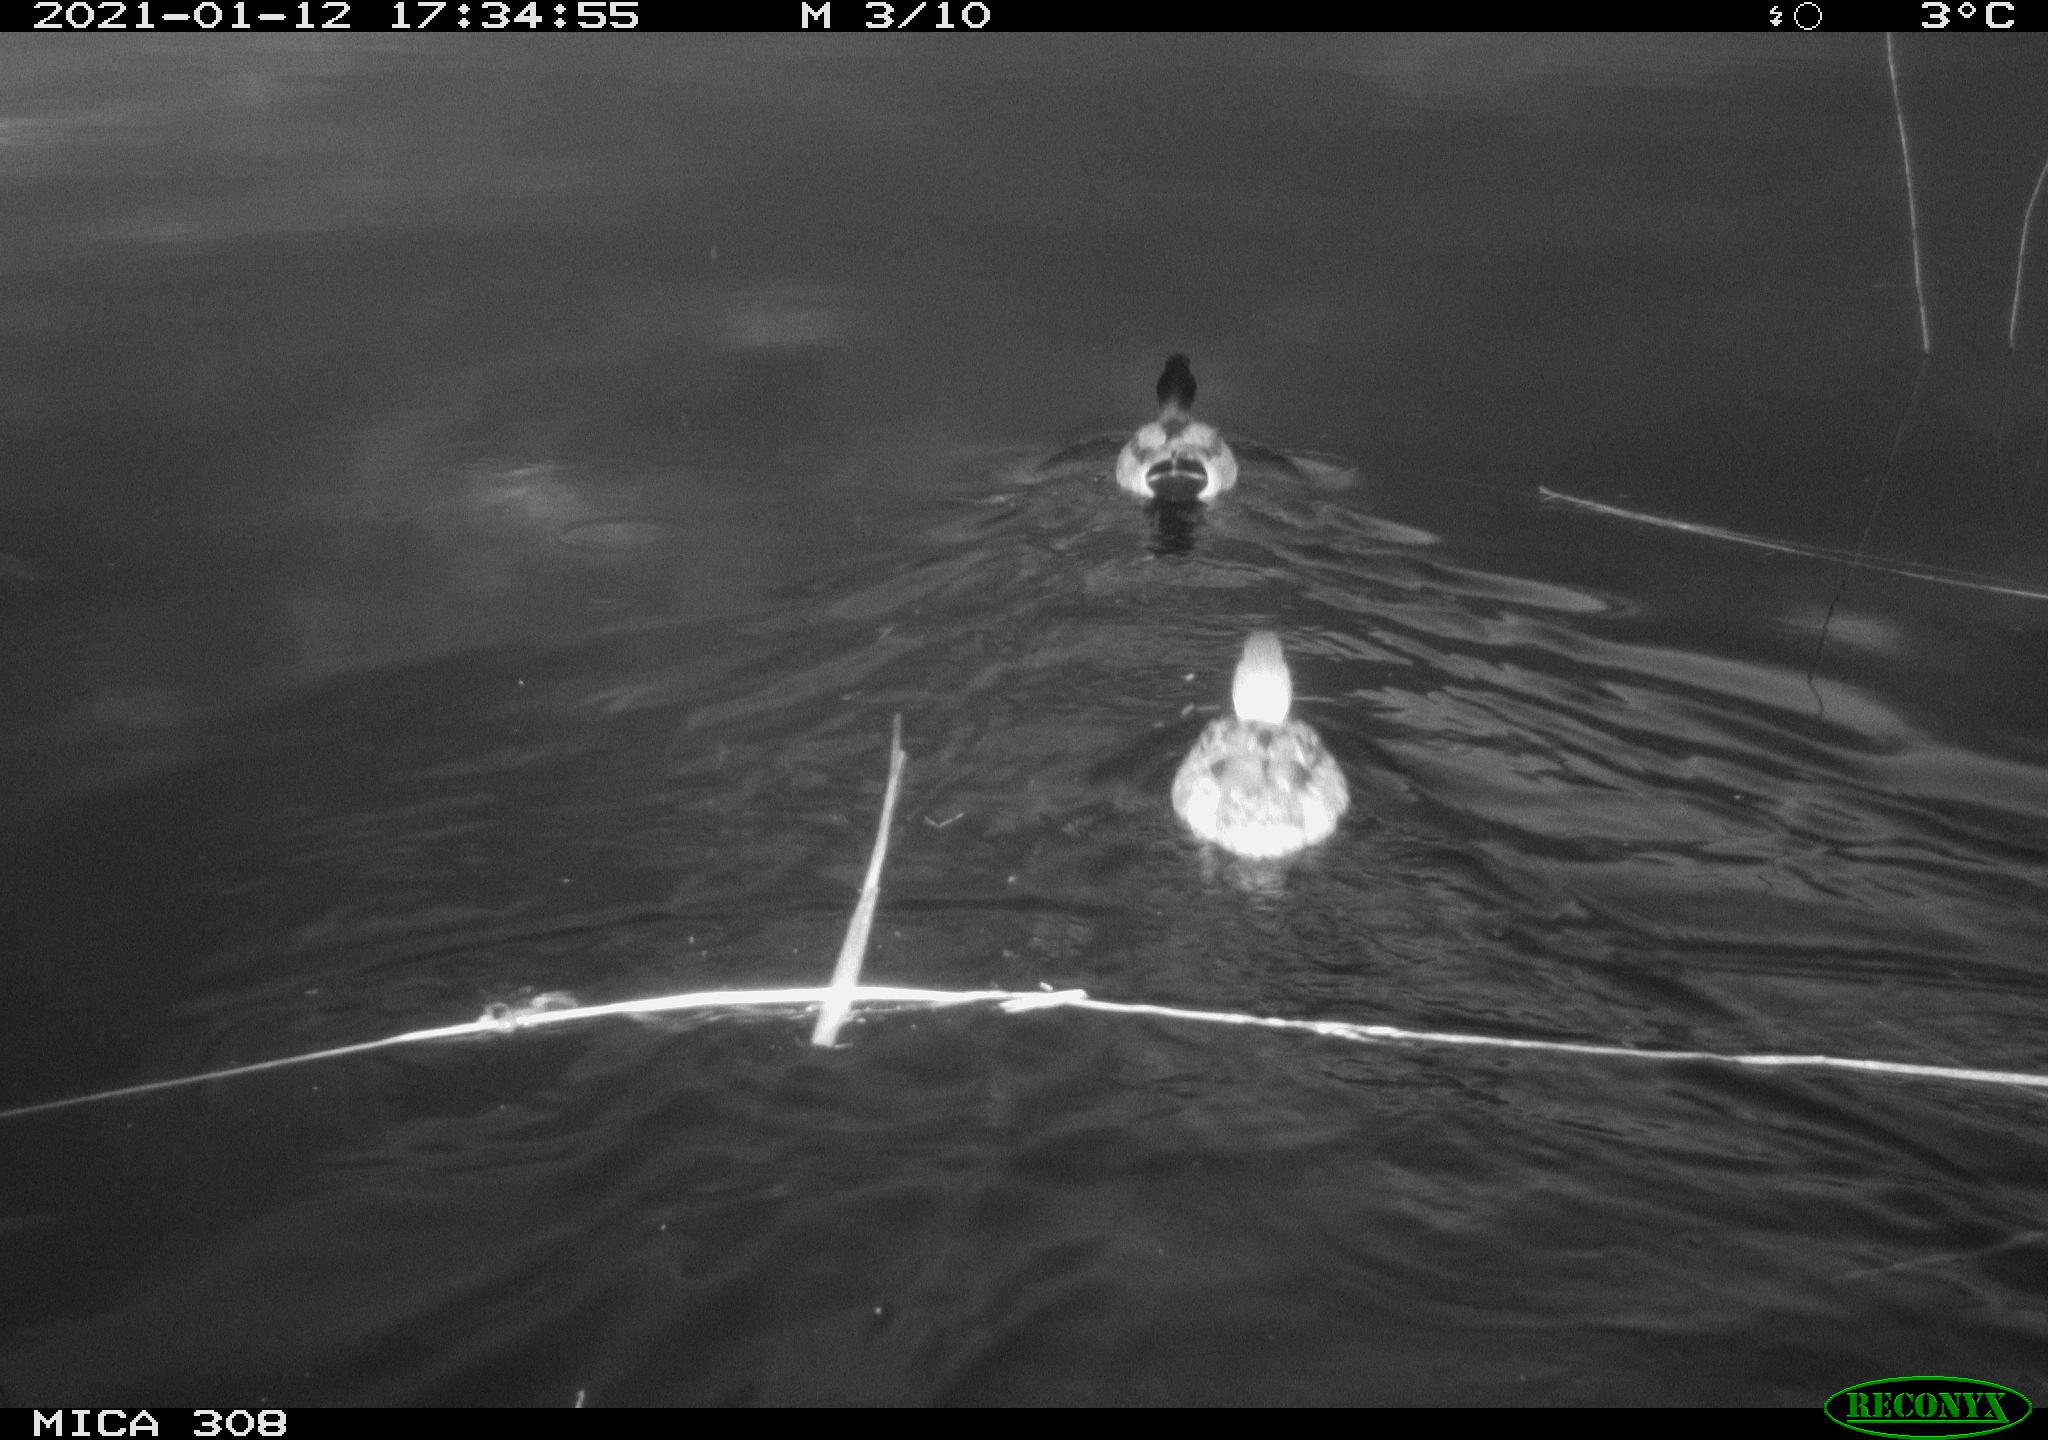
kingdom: Animalia
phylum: Chordata
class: Aves
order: Anseriformes
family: Anatidae
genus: Anas
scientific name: Anas platyrhynchos
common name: Mallard
